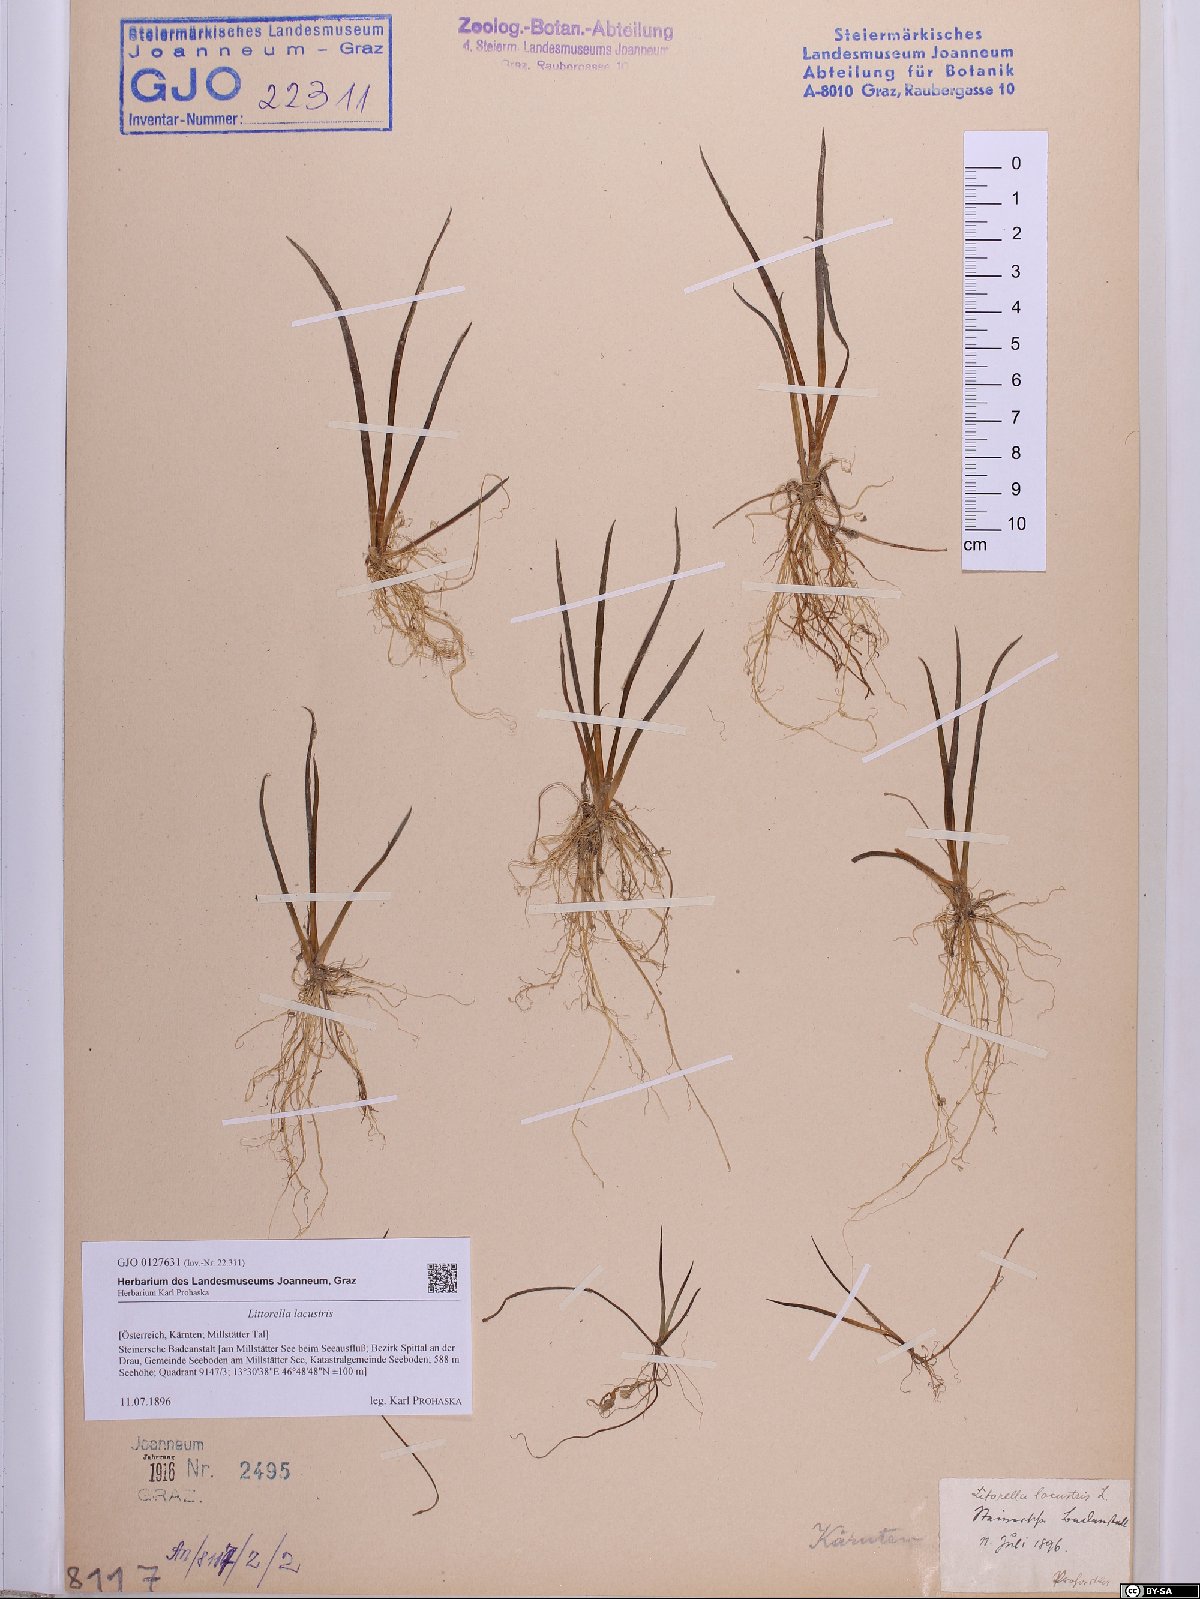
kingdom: Plantae
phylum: Tracheophyta
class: Magnoliopsida
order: Lamiales
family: Plantaginaceae
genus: Littorella
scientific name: Littorella uniflora
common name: Shoreweed
